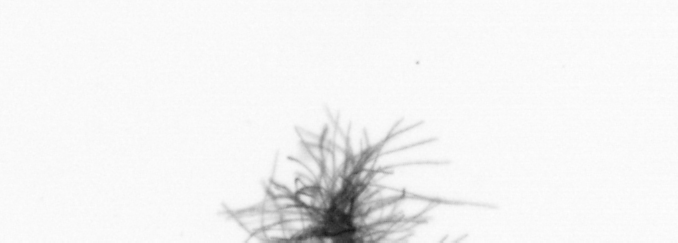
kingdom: Bacteria
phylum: Cyanobacteria
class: Cyanobacteriia
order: Cyanobacteriales
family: Microcoleaceae
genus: Trichodesmium
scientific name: Trichodesmium
